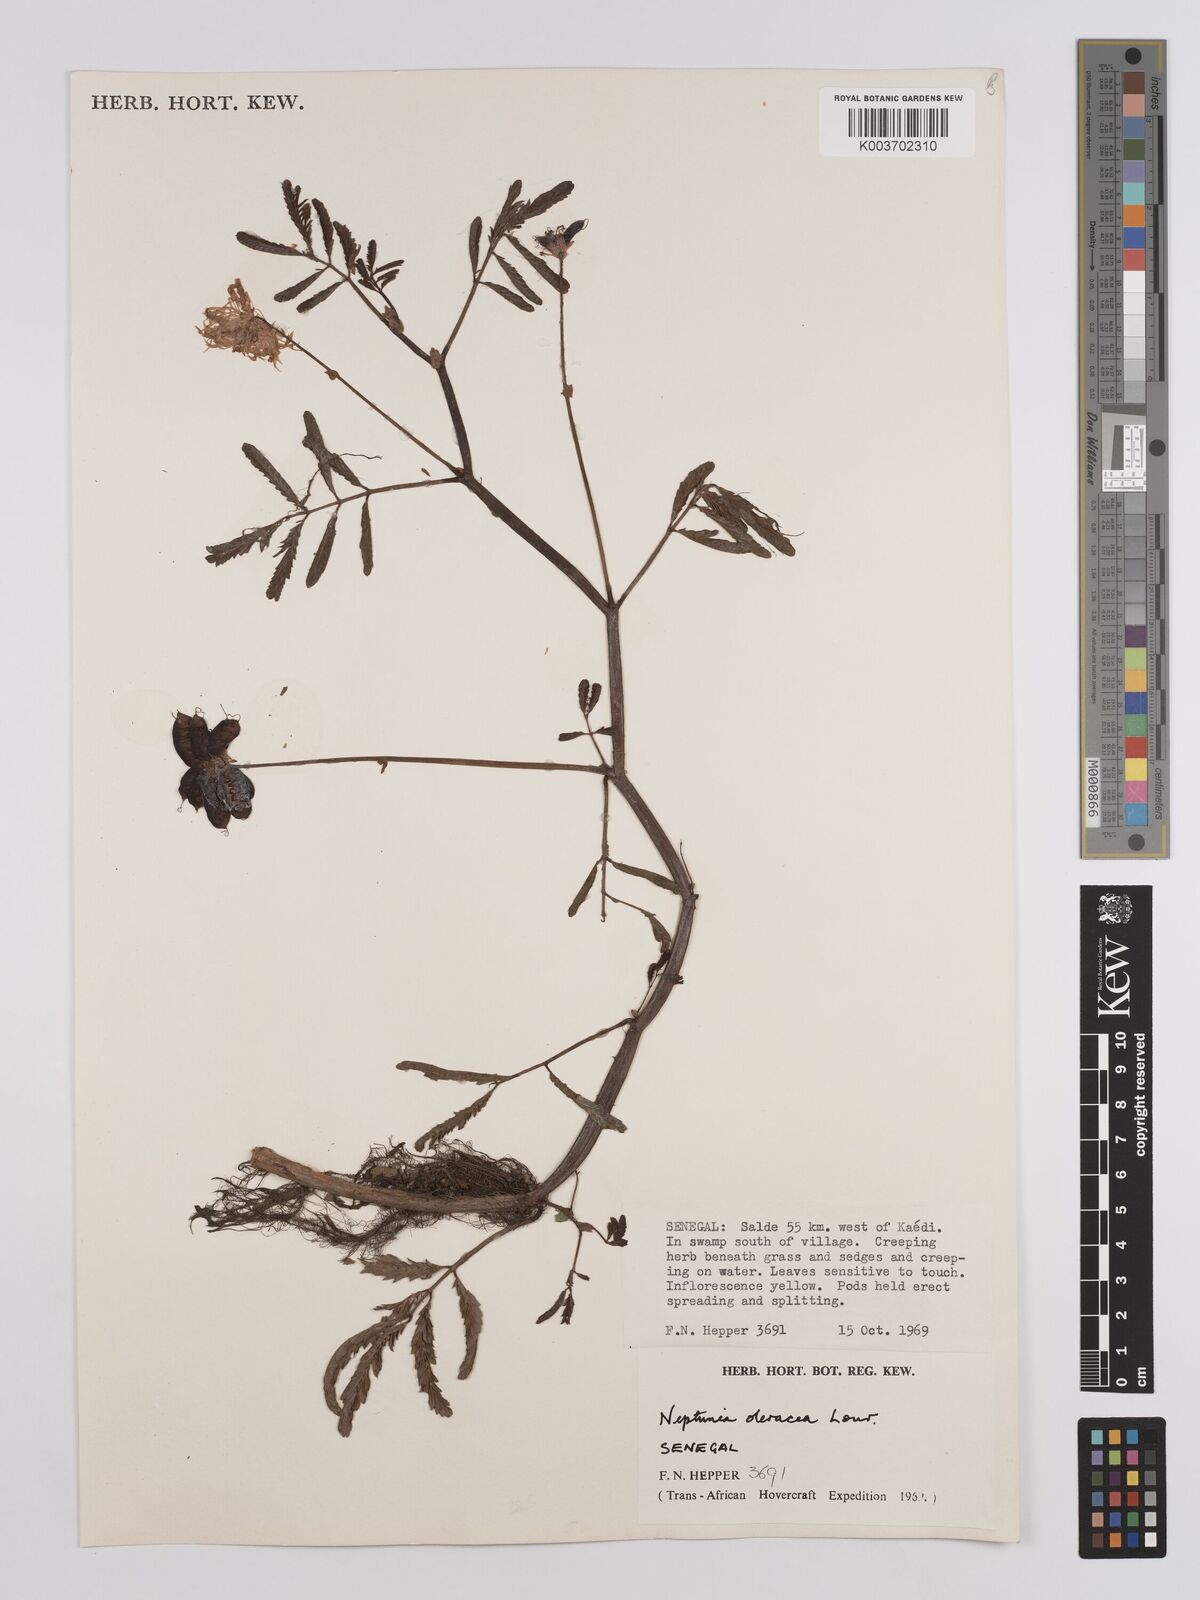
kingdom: Plantae
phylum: Tracheophyta
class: Magnoliopsida
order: Fabales
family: Fabaceae
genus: Neptunia
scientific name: Neptunia prostrata
